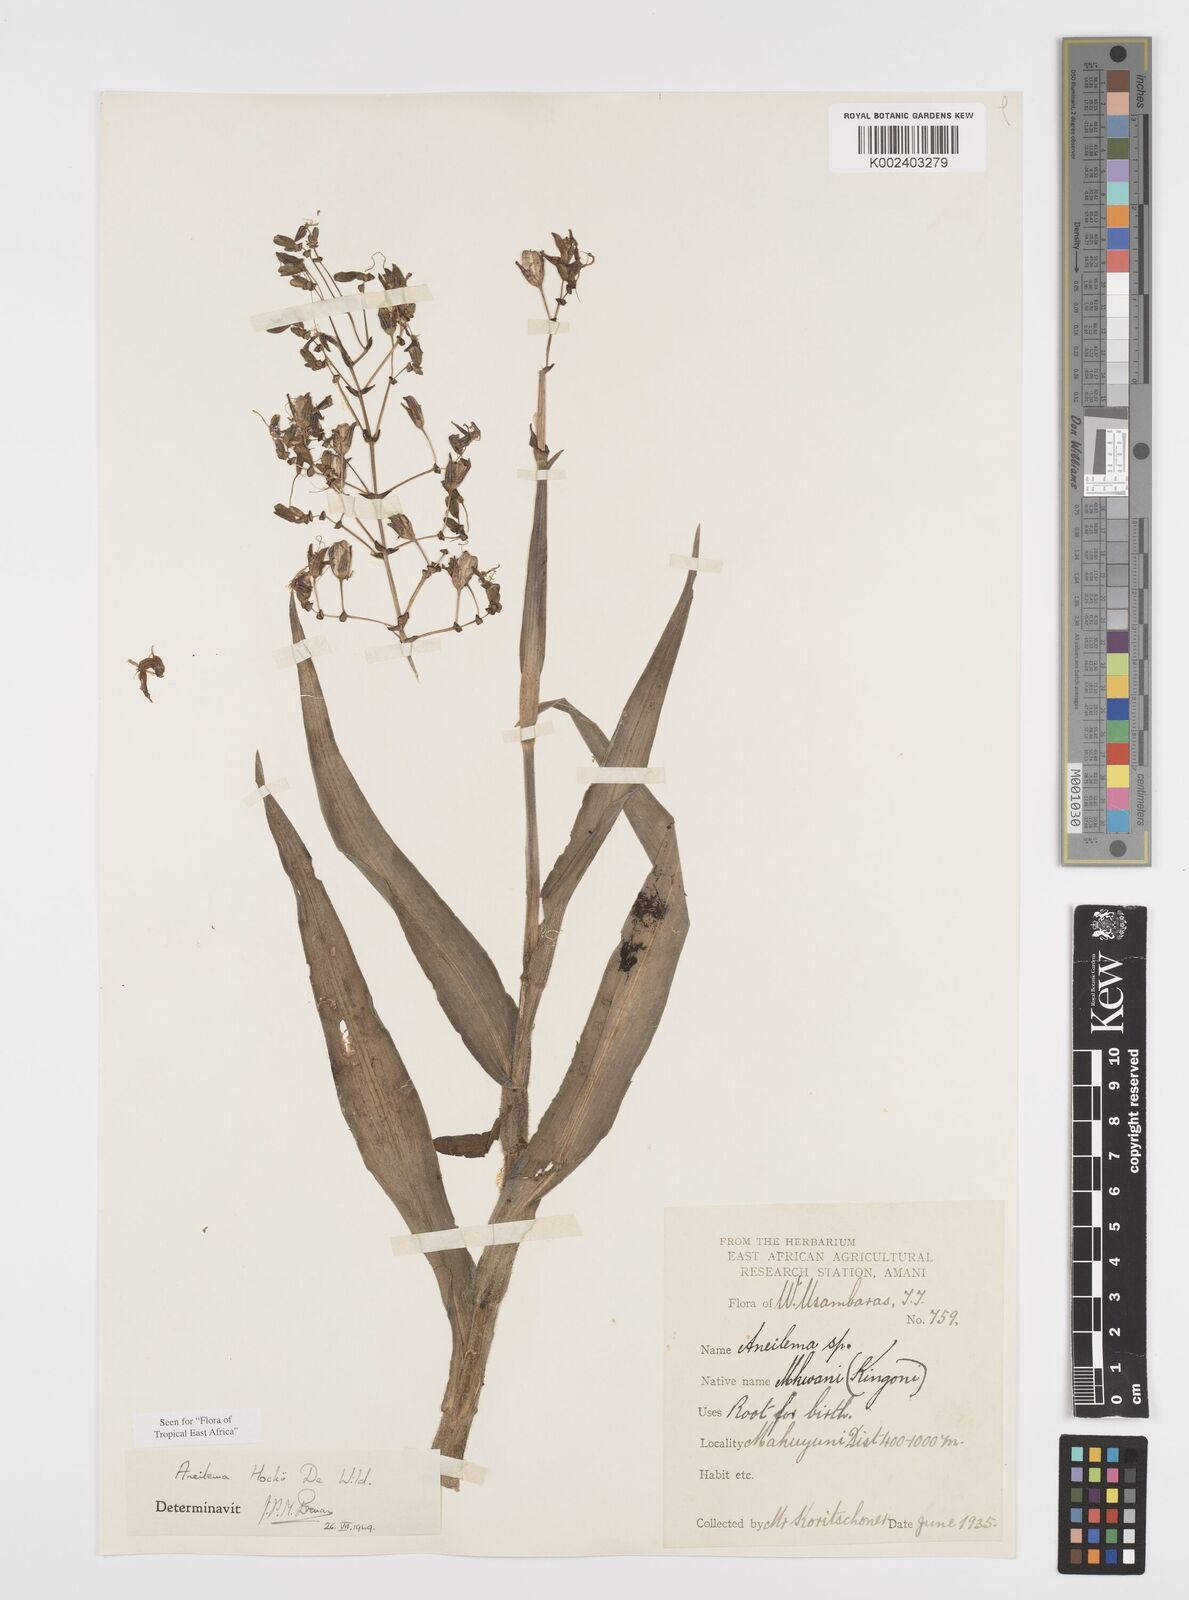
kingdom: Plantae
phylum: Tracheophyta
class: Liliopsida
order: Commelinales
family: Commelinaceae
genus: Aneilema
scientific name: Aneilema hockii
